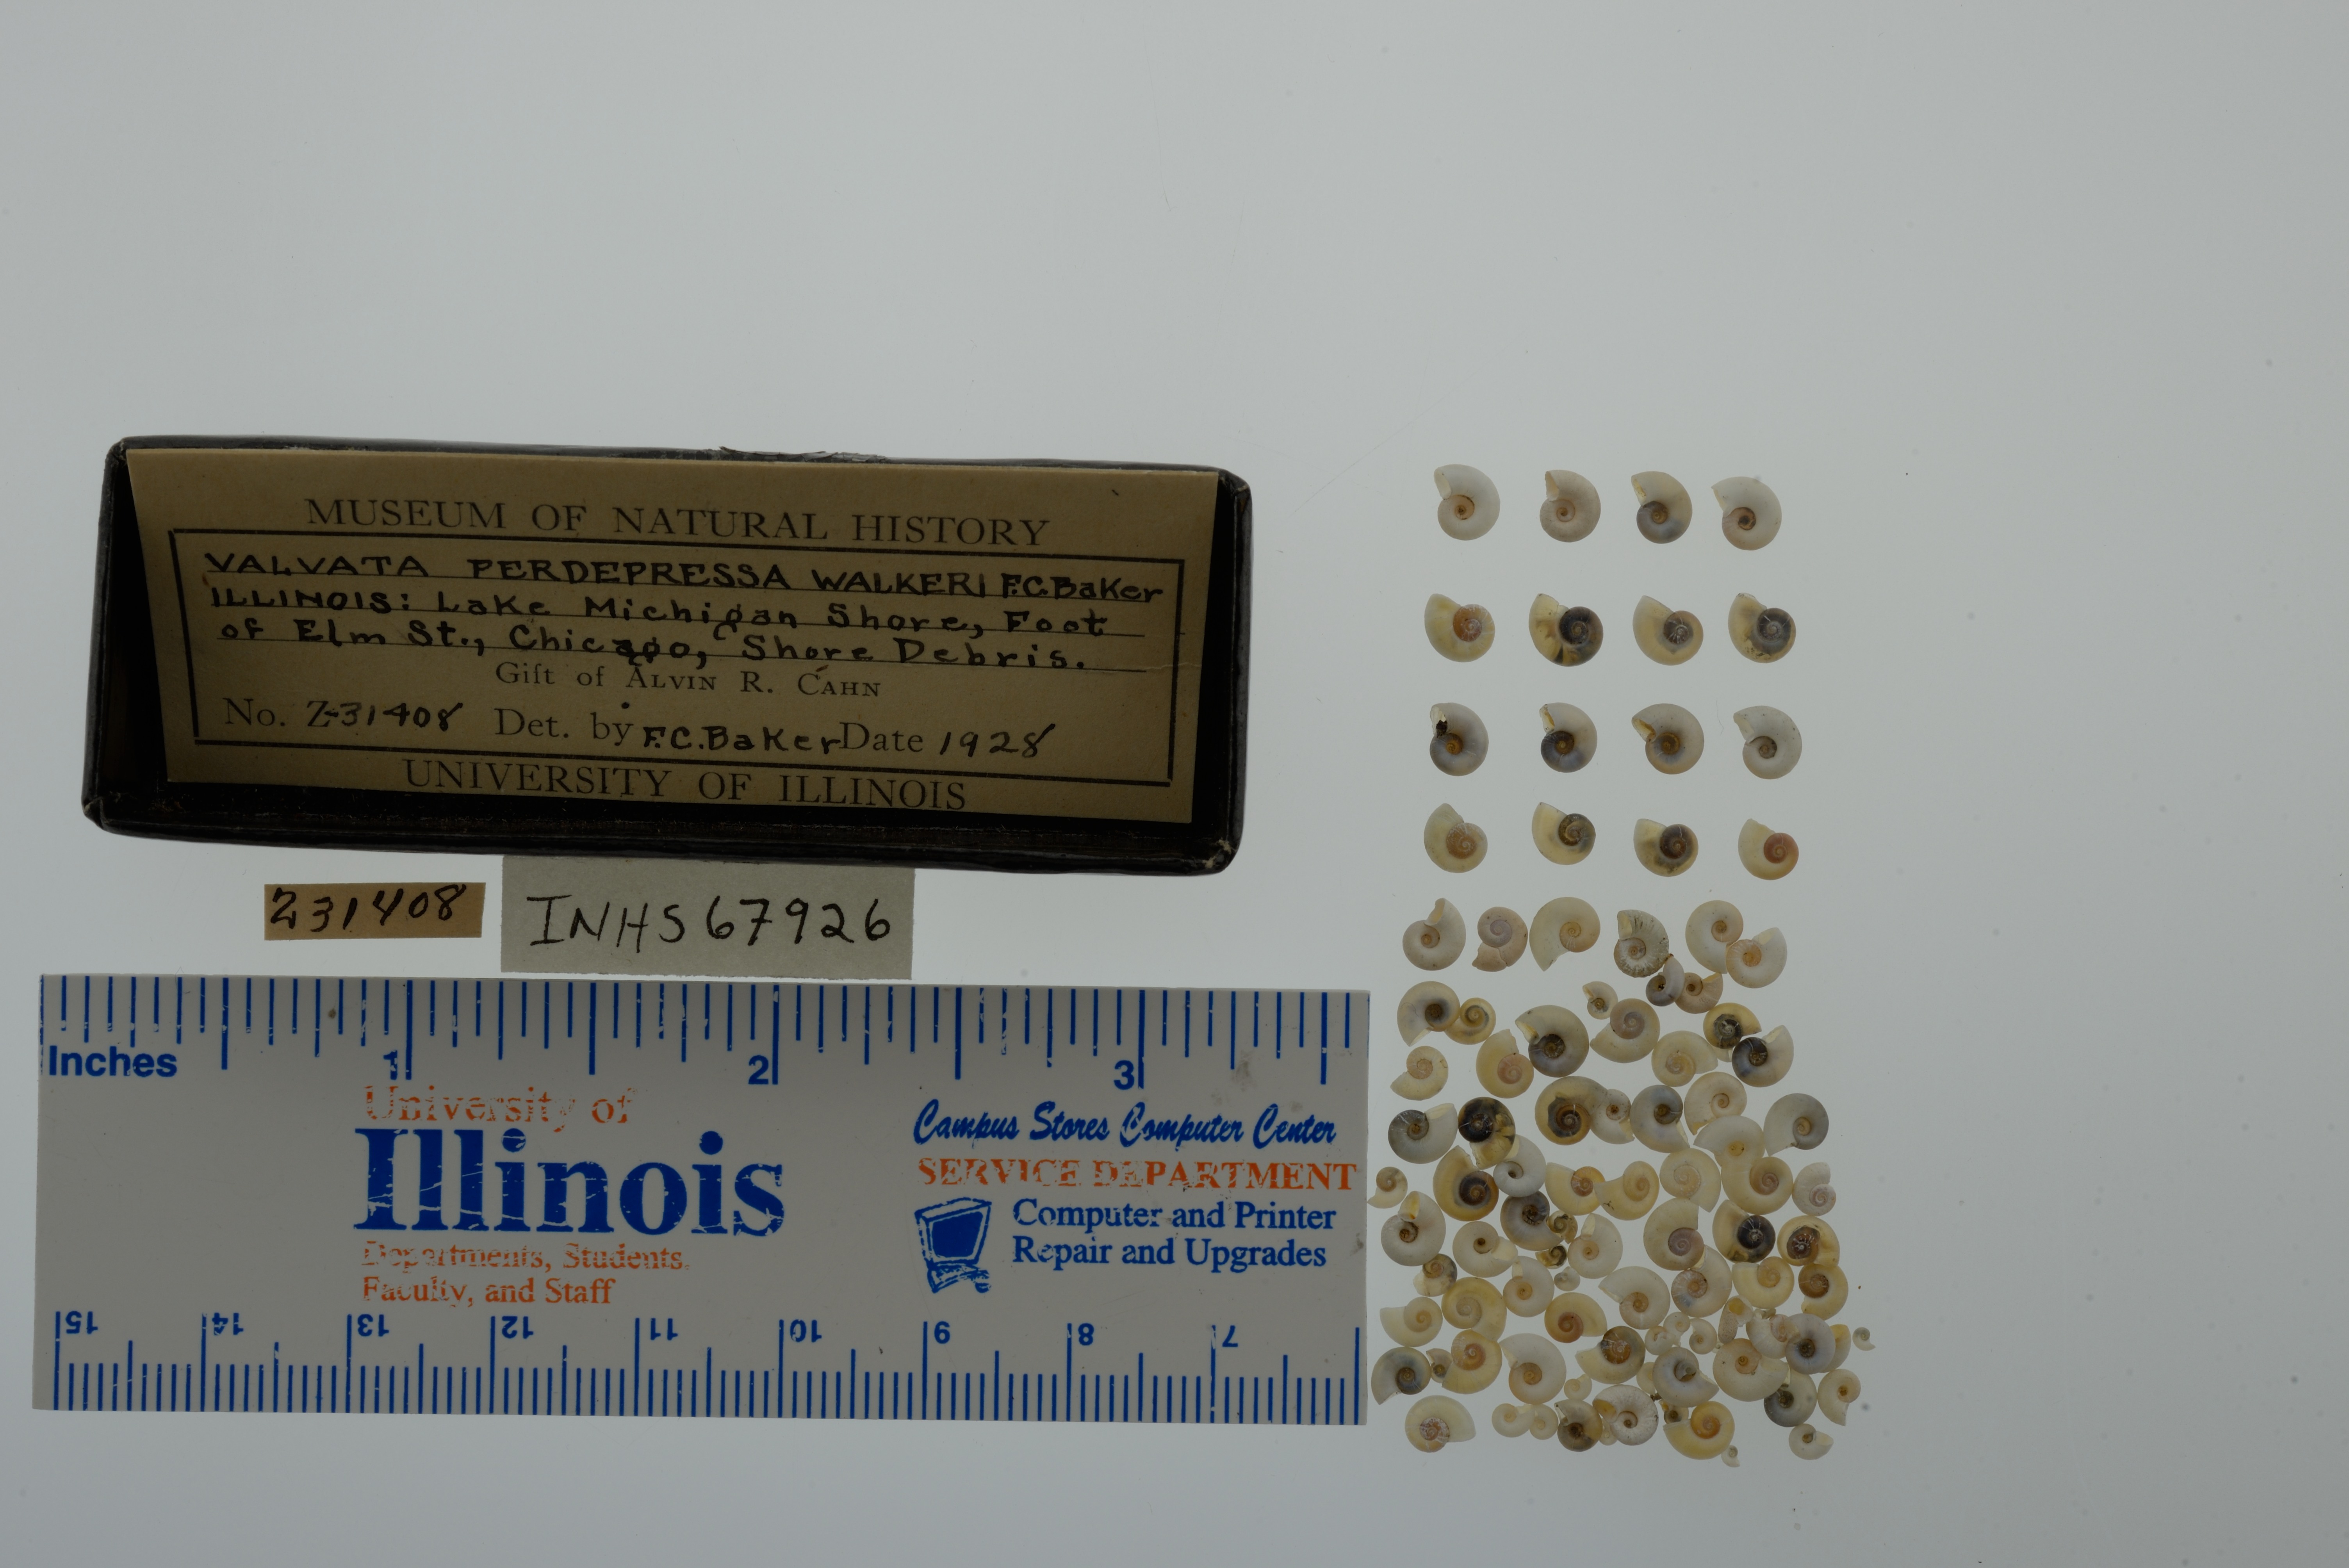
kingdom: Animalia
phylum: Mollusca
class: Gastropoda
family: Valvatidae
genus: Valvata
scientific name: Valvata perdepressa
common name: Purplecap valvata
